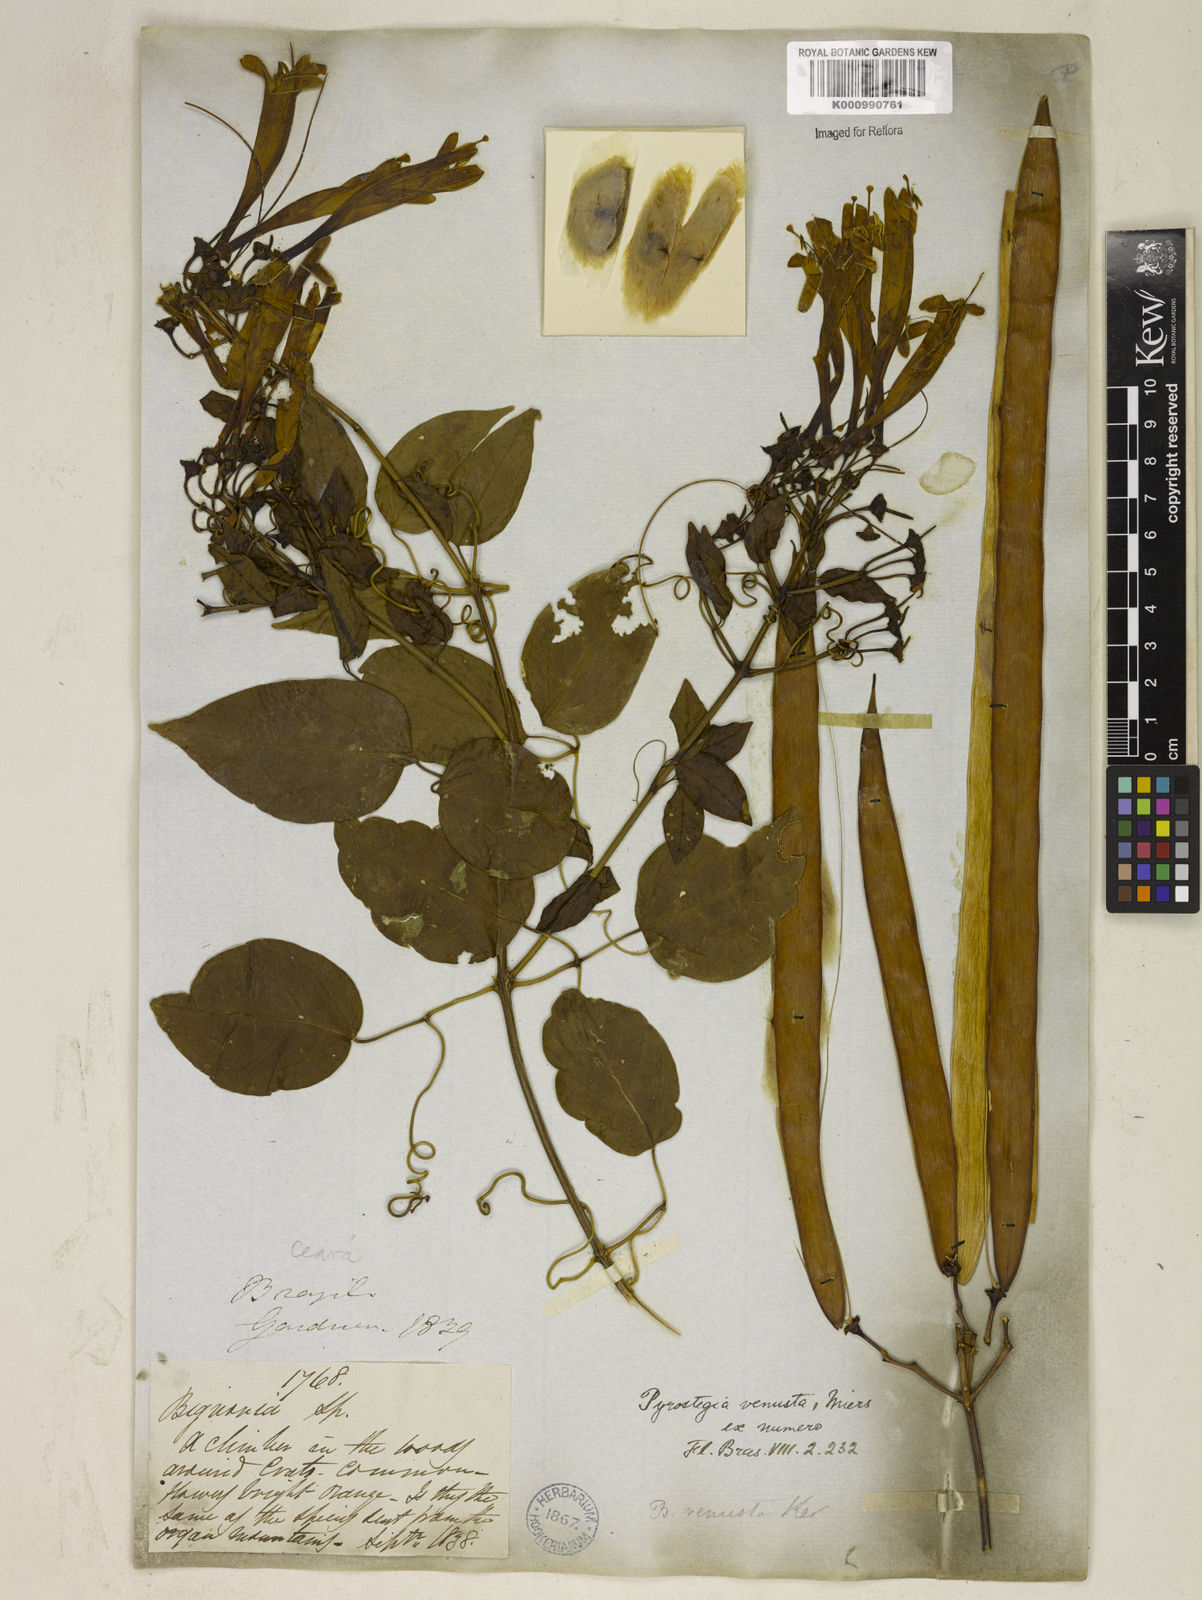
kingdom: Plantae
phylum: Tracheophyta
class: Magnoliopsida
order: Lamiales
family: Bignoniaceae
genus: Pyrostegia
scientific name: Pyrostegia venusta
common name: Flamevine
